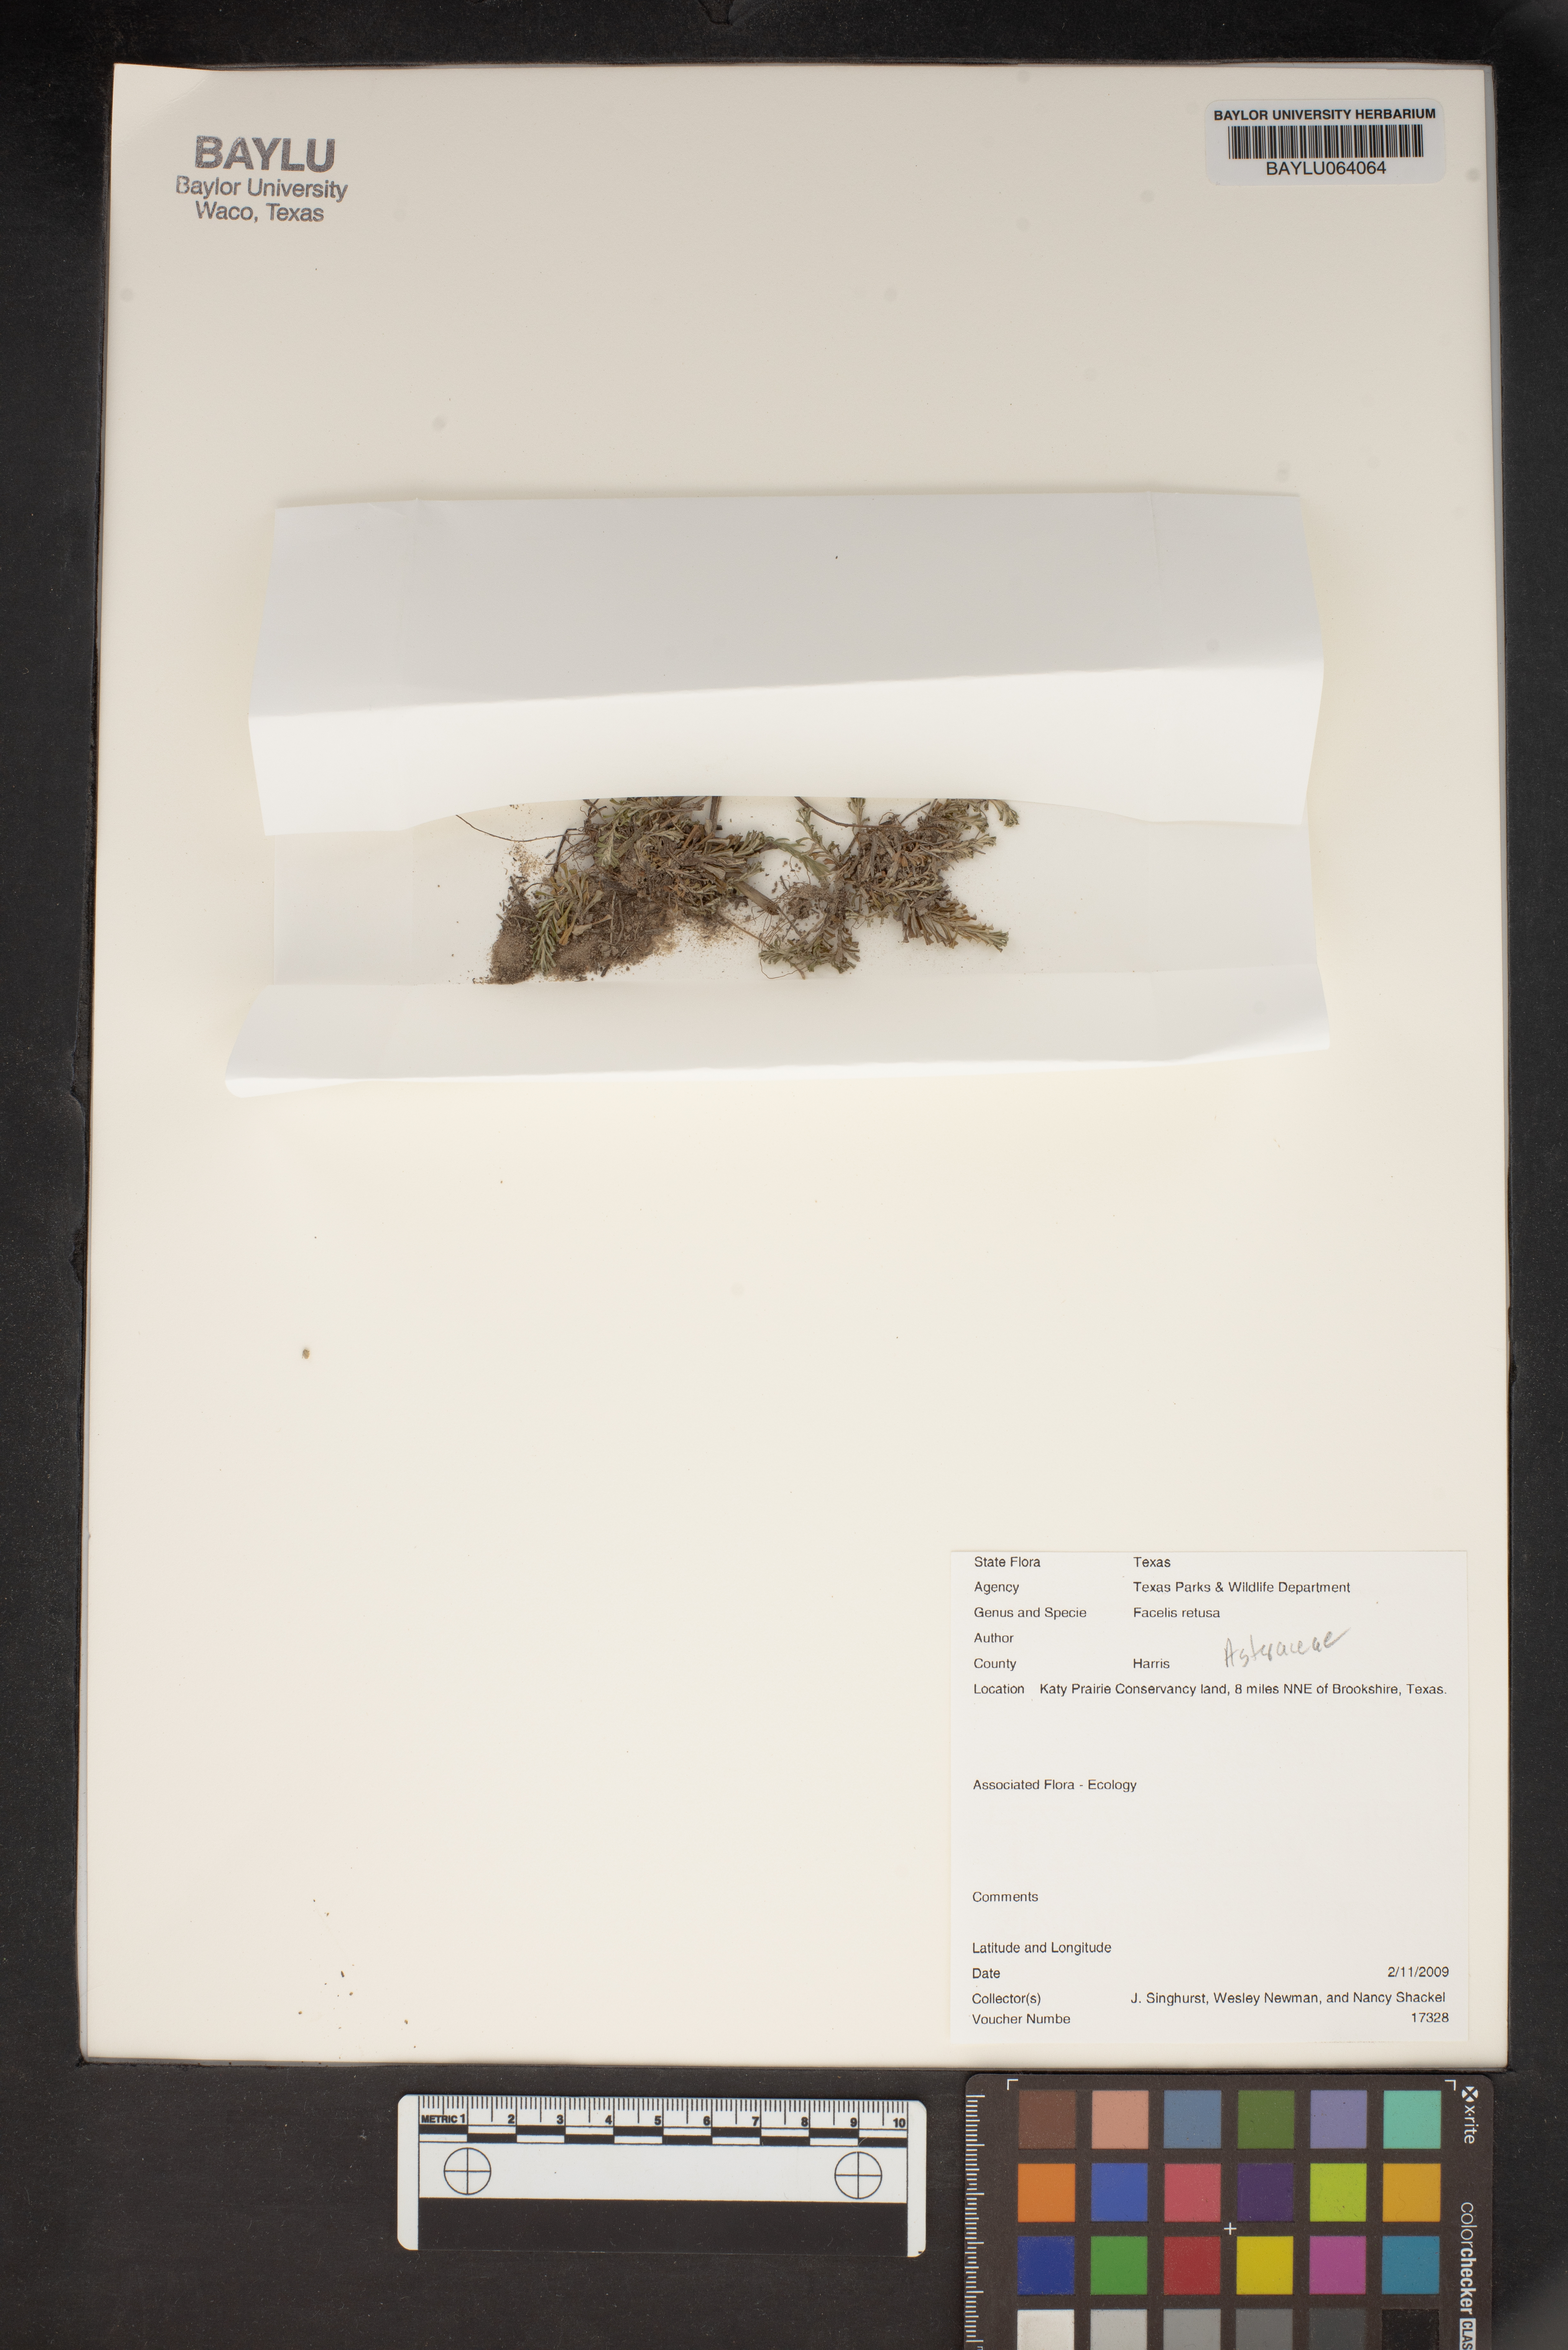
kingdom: Plantae
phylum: Tracheophyta
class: Magnoliopsida
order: Asterales
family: Asteraceae
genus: Facelis
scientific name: Facelis retusa
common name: Annual trampweed
